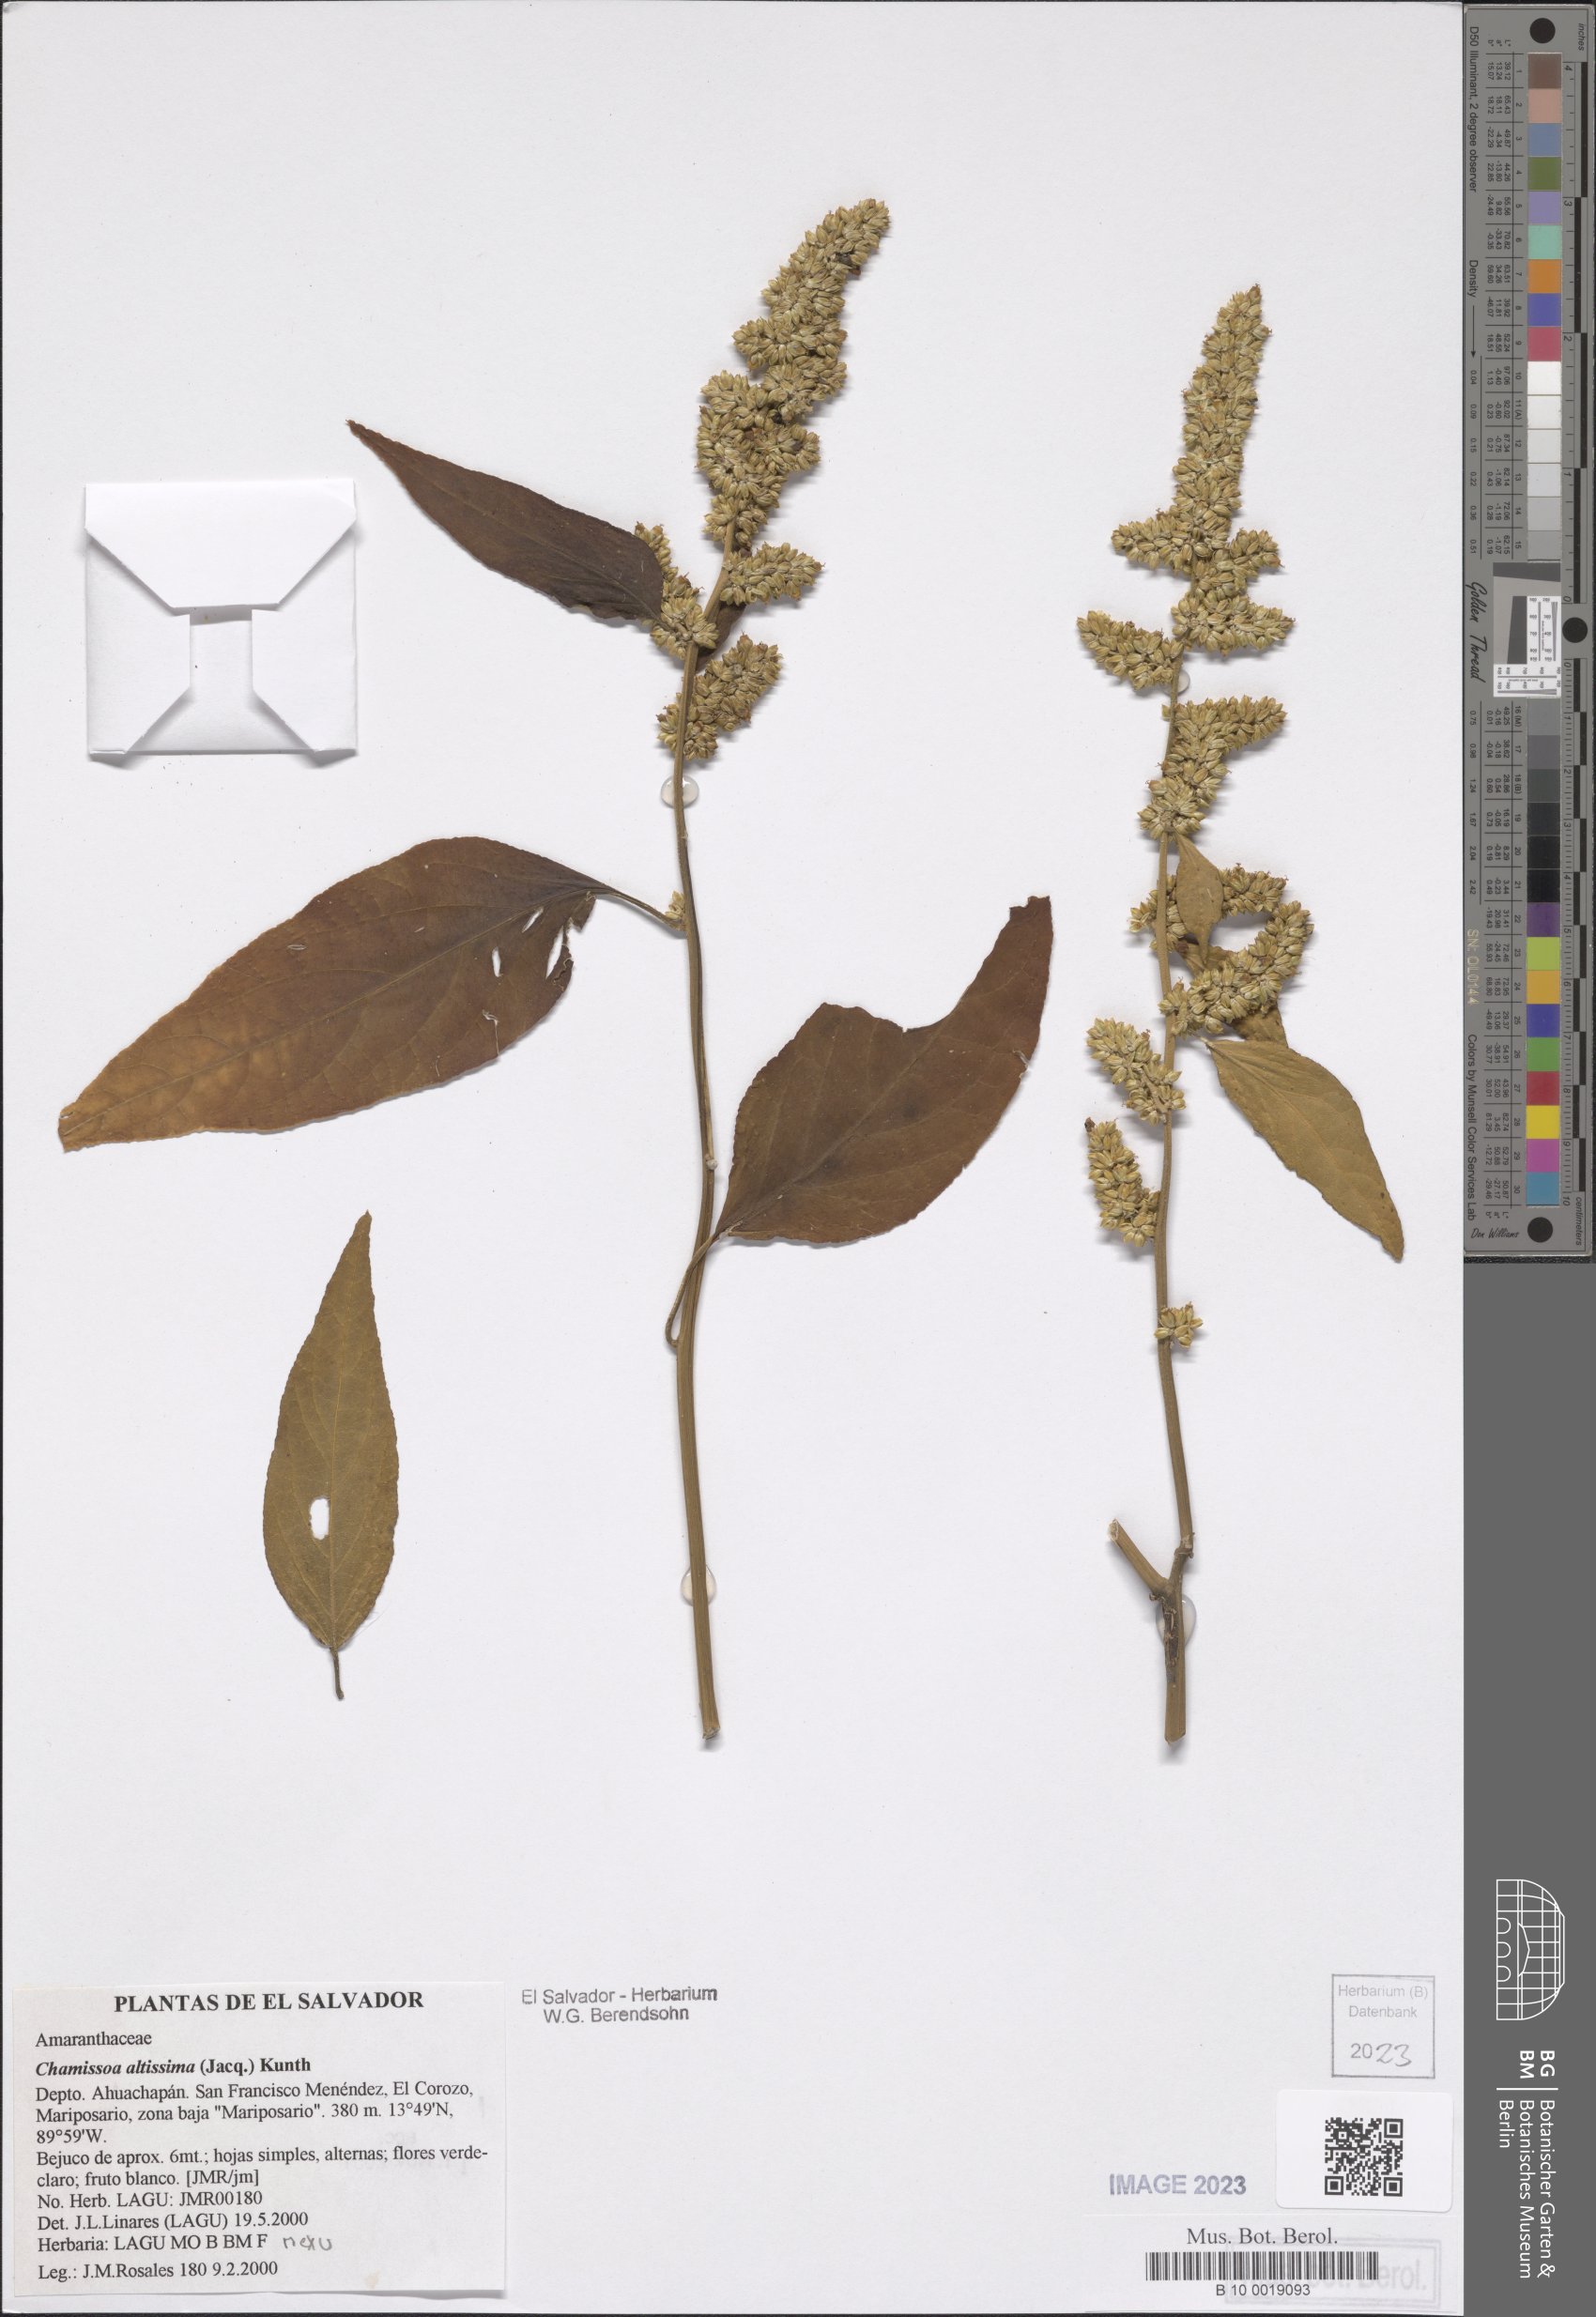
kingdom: Plantae
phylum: Tracheophyta
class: Magnoliopsida
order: Caryophyllales
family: Amaranthaceae
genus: Chamissoa
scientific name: Chamissoa altissima
